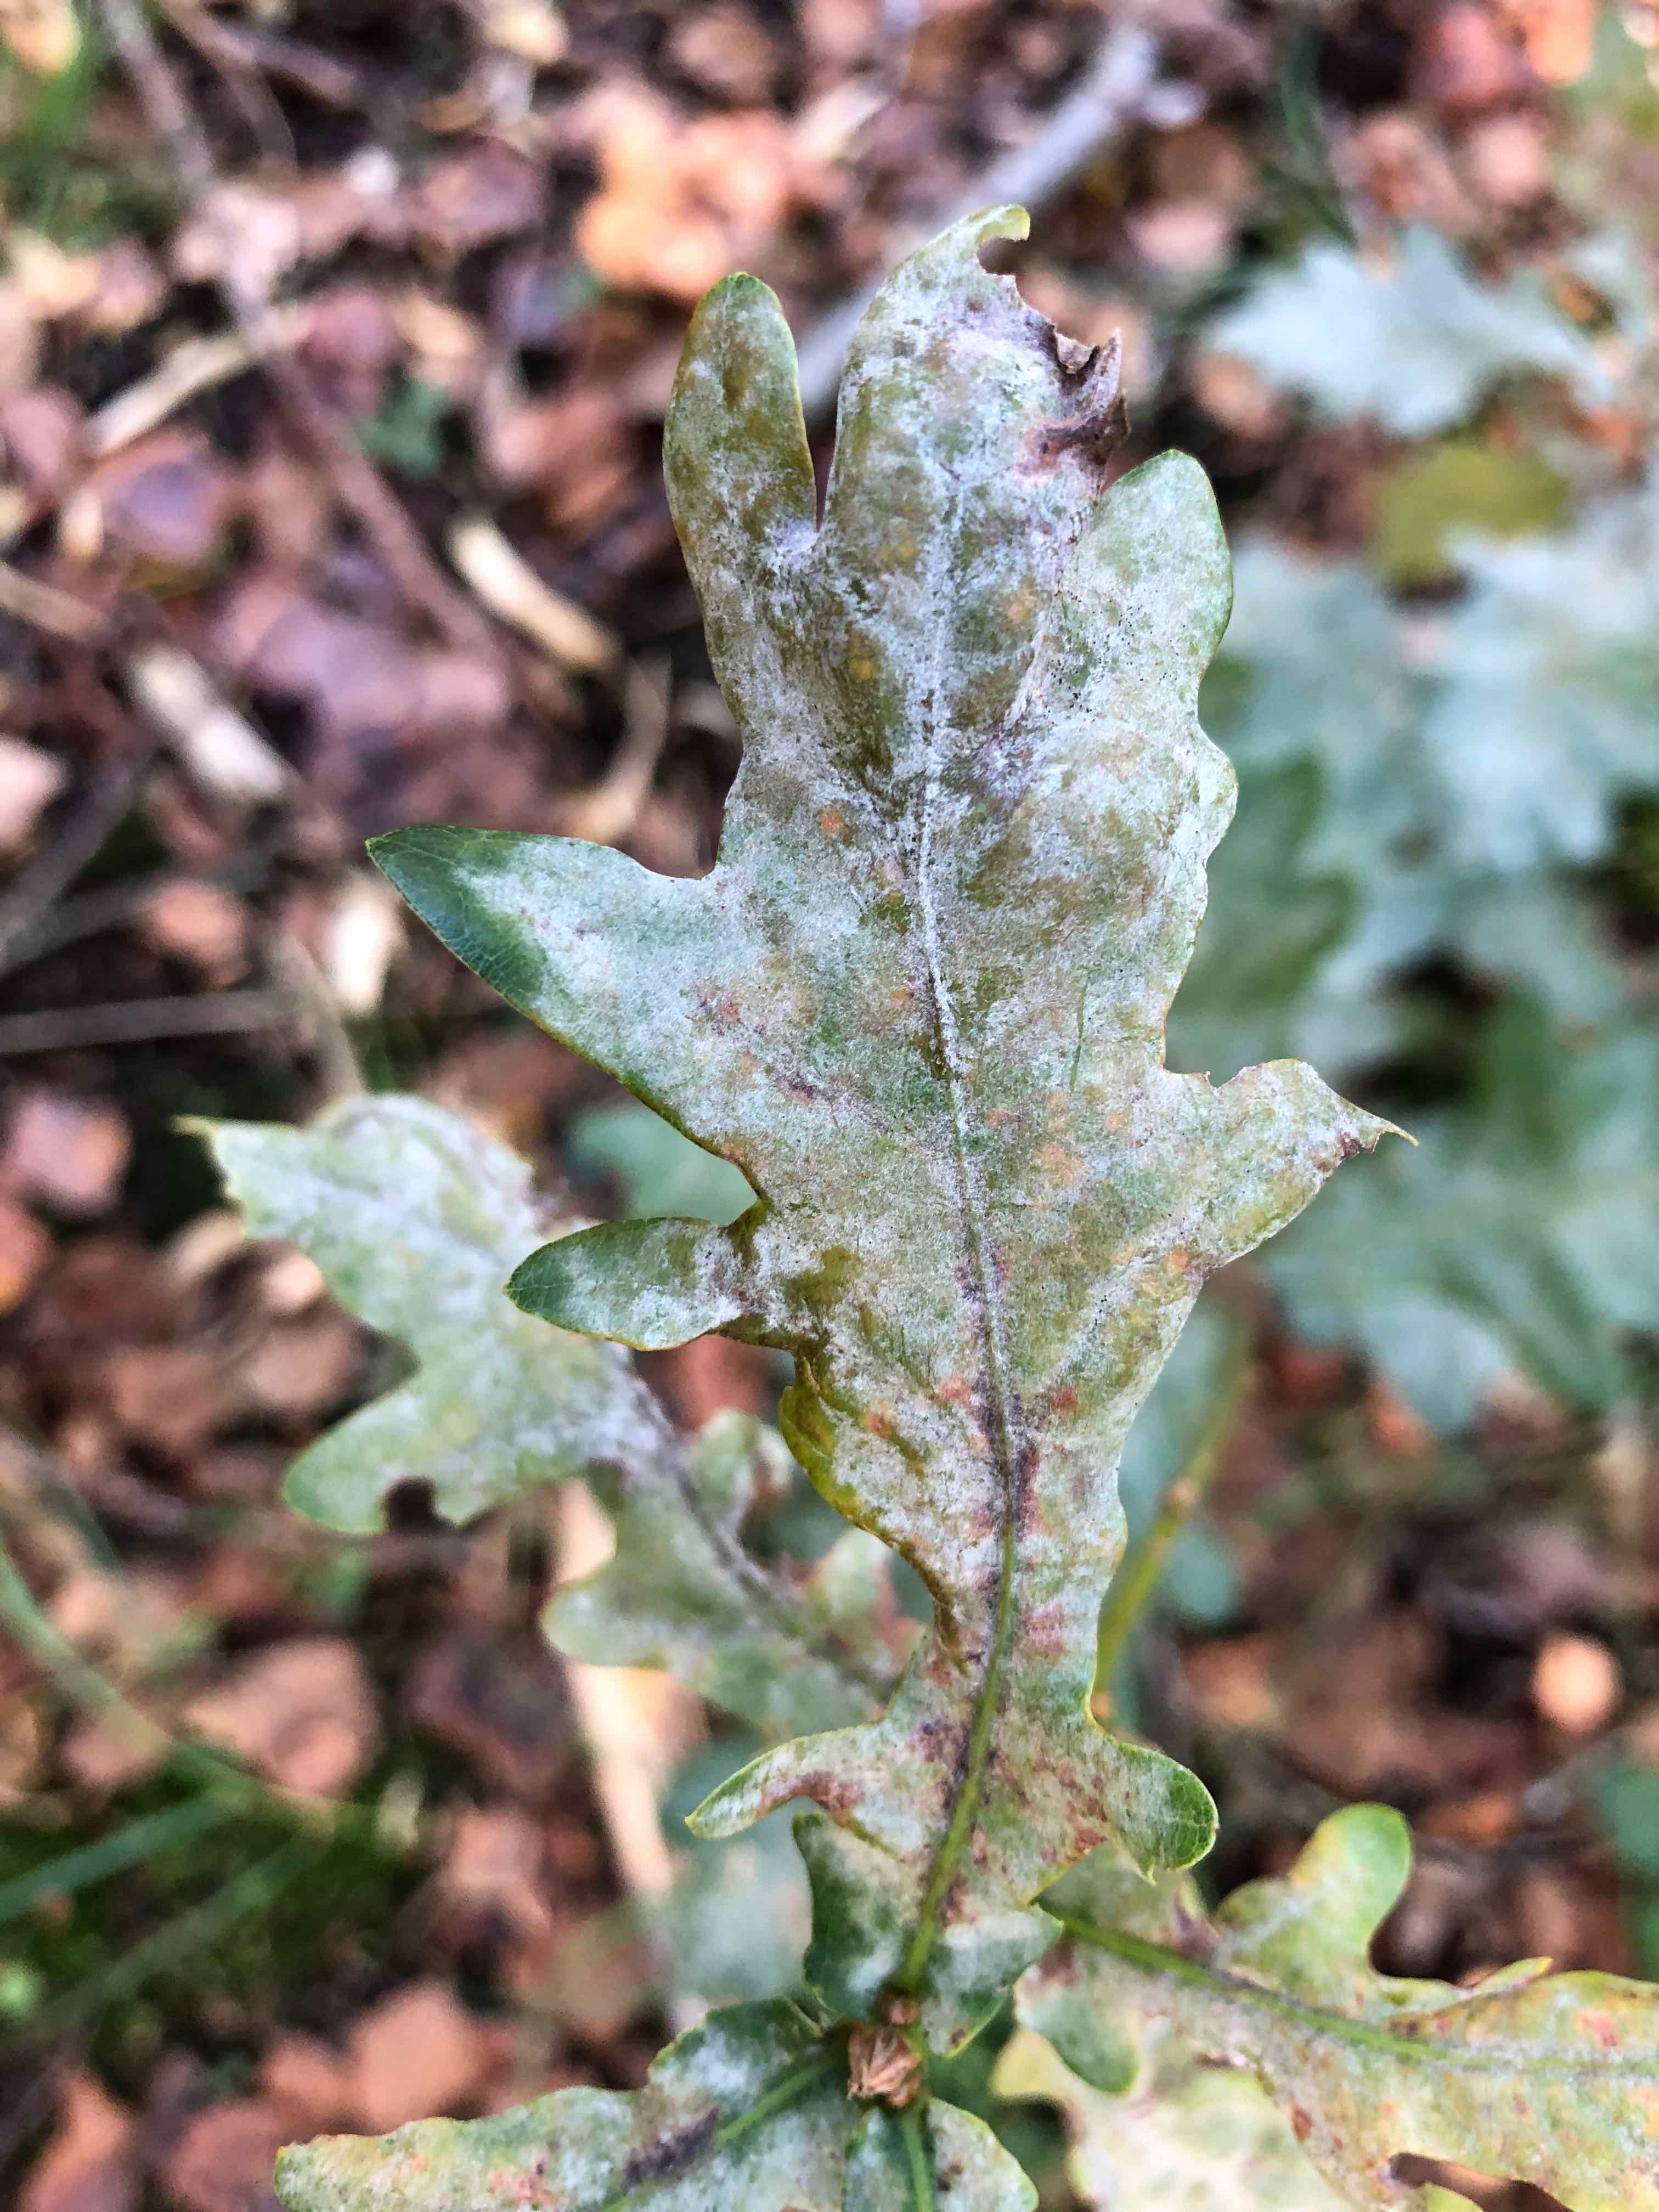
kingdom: Fungi
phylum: Ascomycota
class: Leotiomycetes
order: Helotiales
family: Erysiphaceae
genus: Erysiphe
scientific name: Erysiphe alphitoides
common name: ege-meldug
